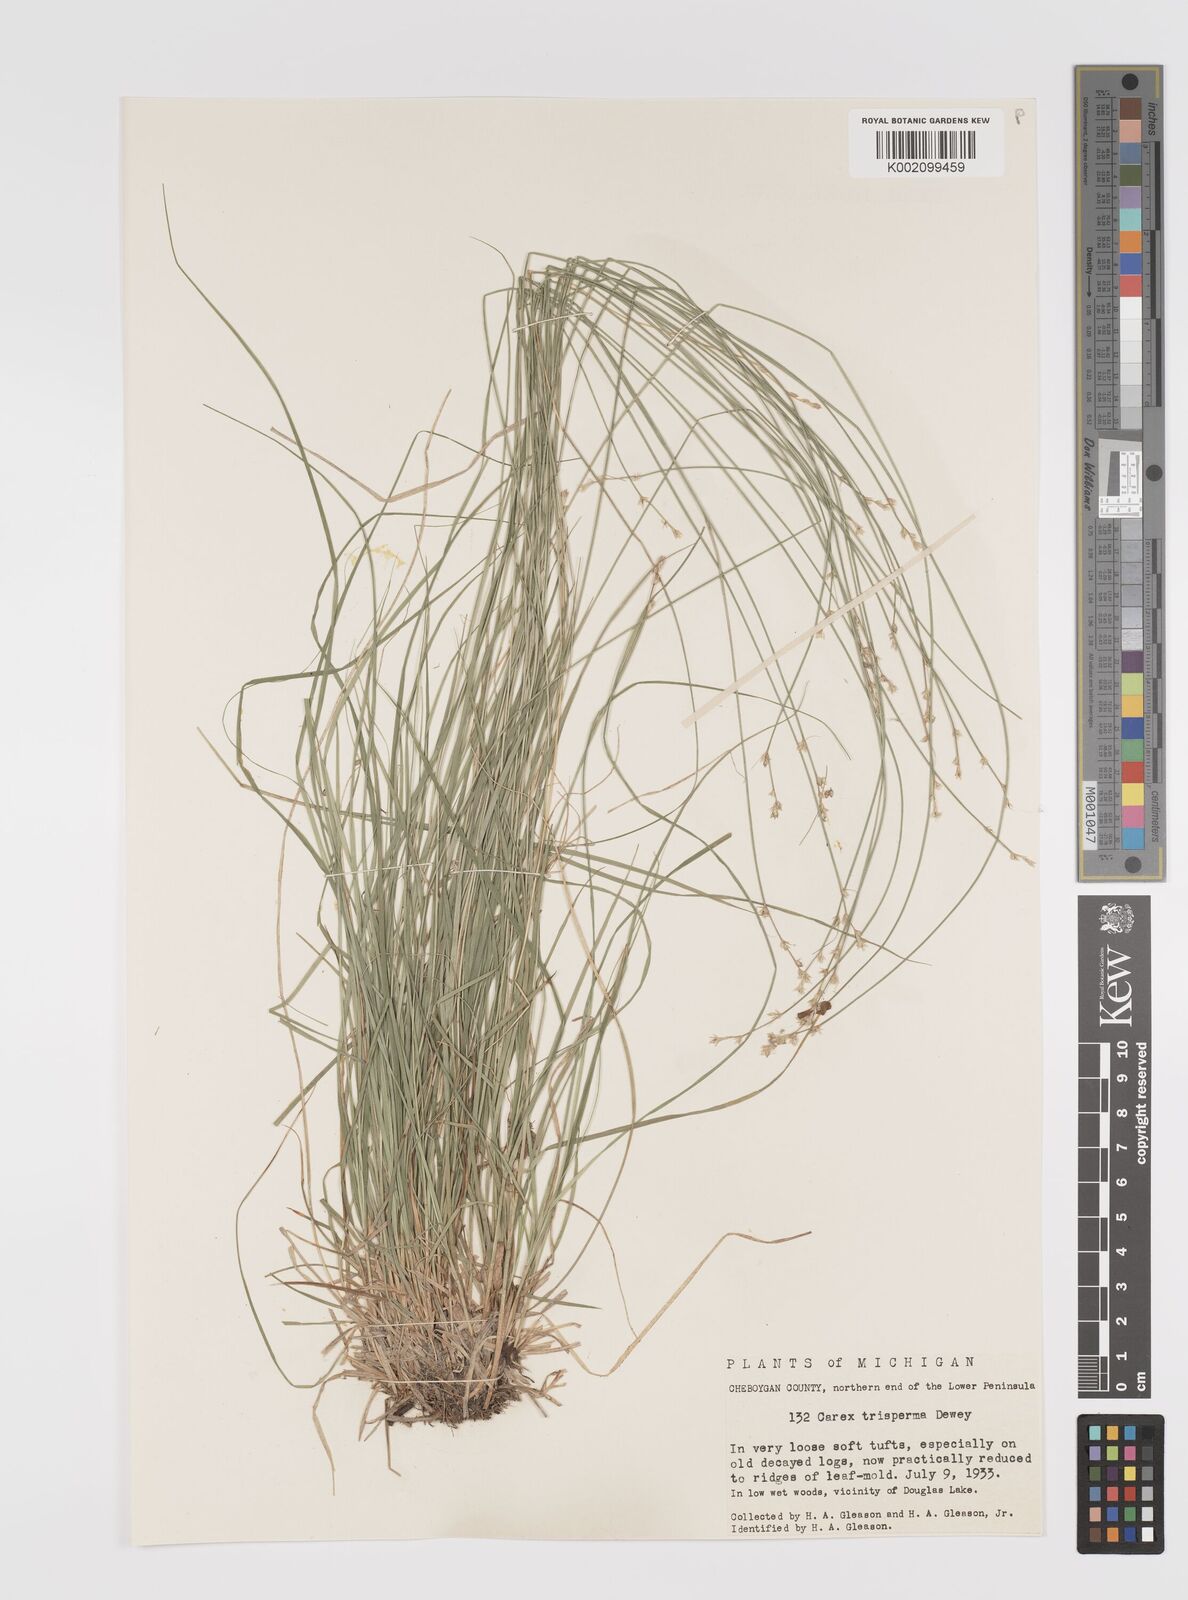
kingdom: Plantae
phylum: Tracheophyta
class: Liliopsida
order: Poales
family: Cyperaceae
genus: Carex
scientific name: Carex trisperma
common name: Three-seeded sedge
